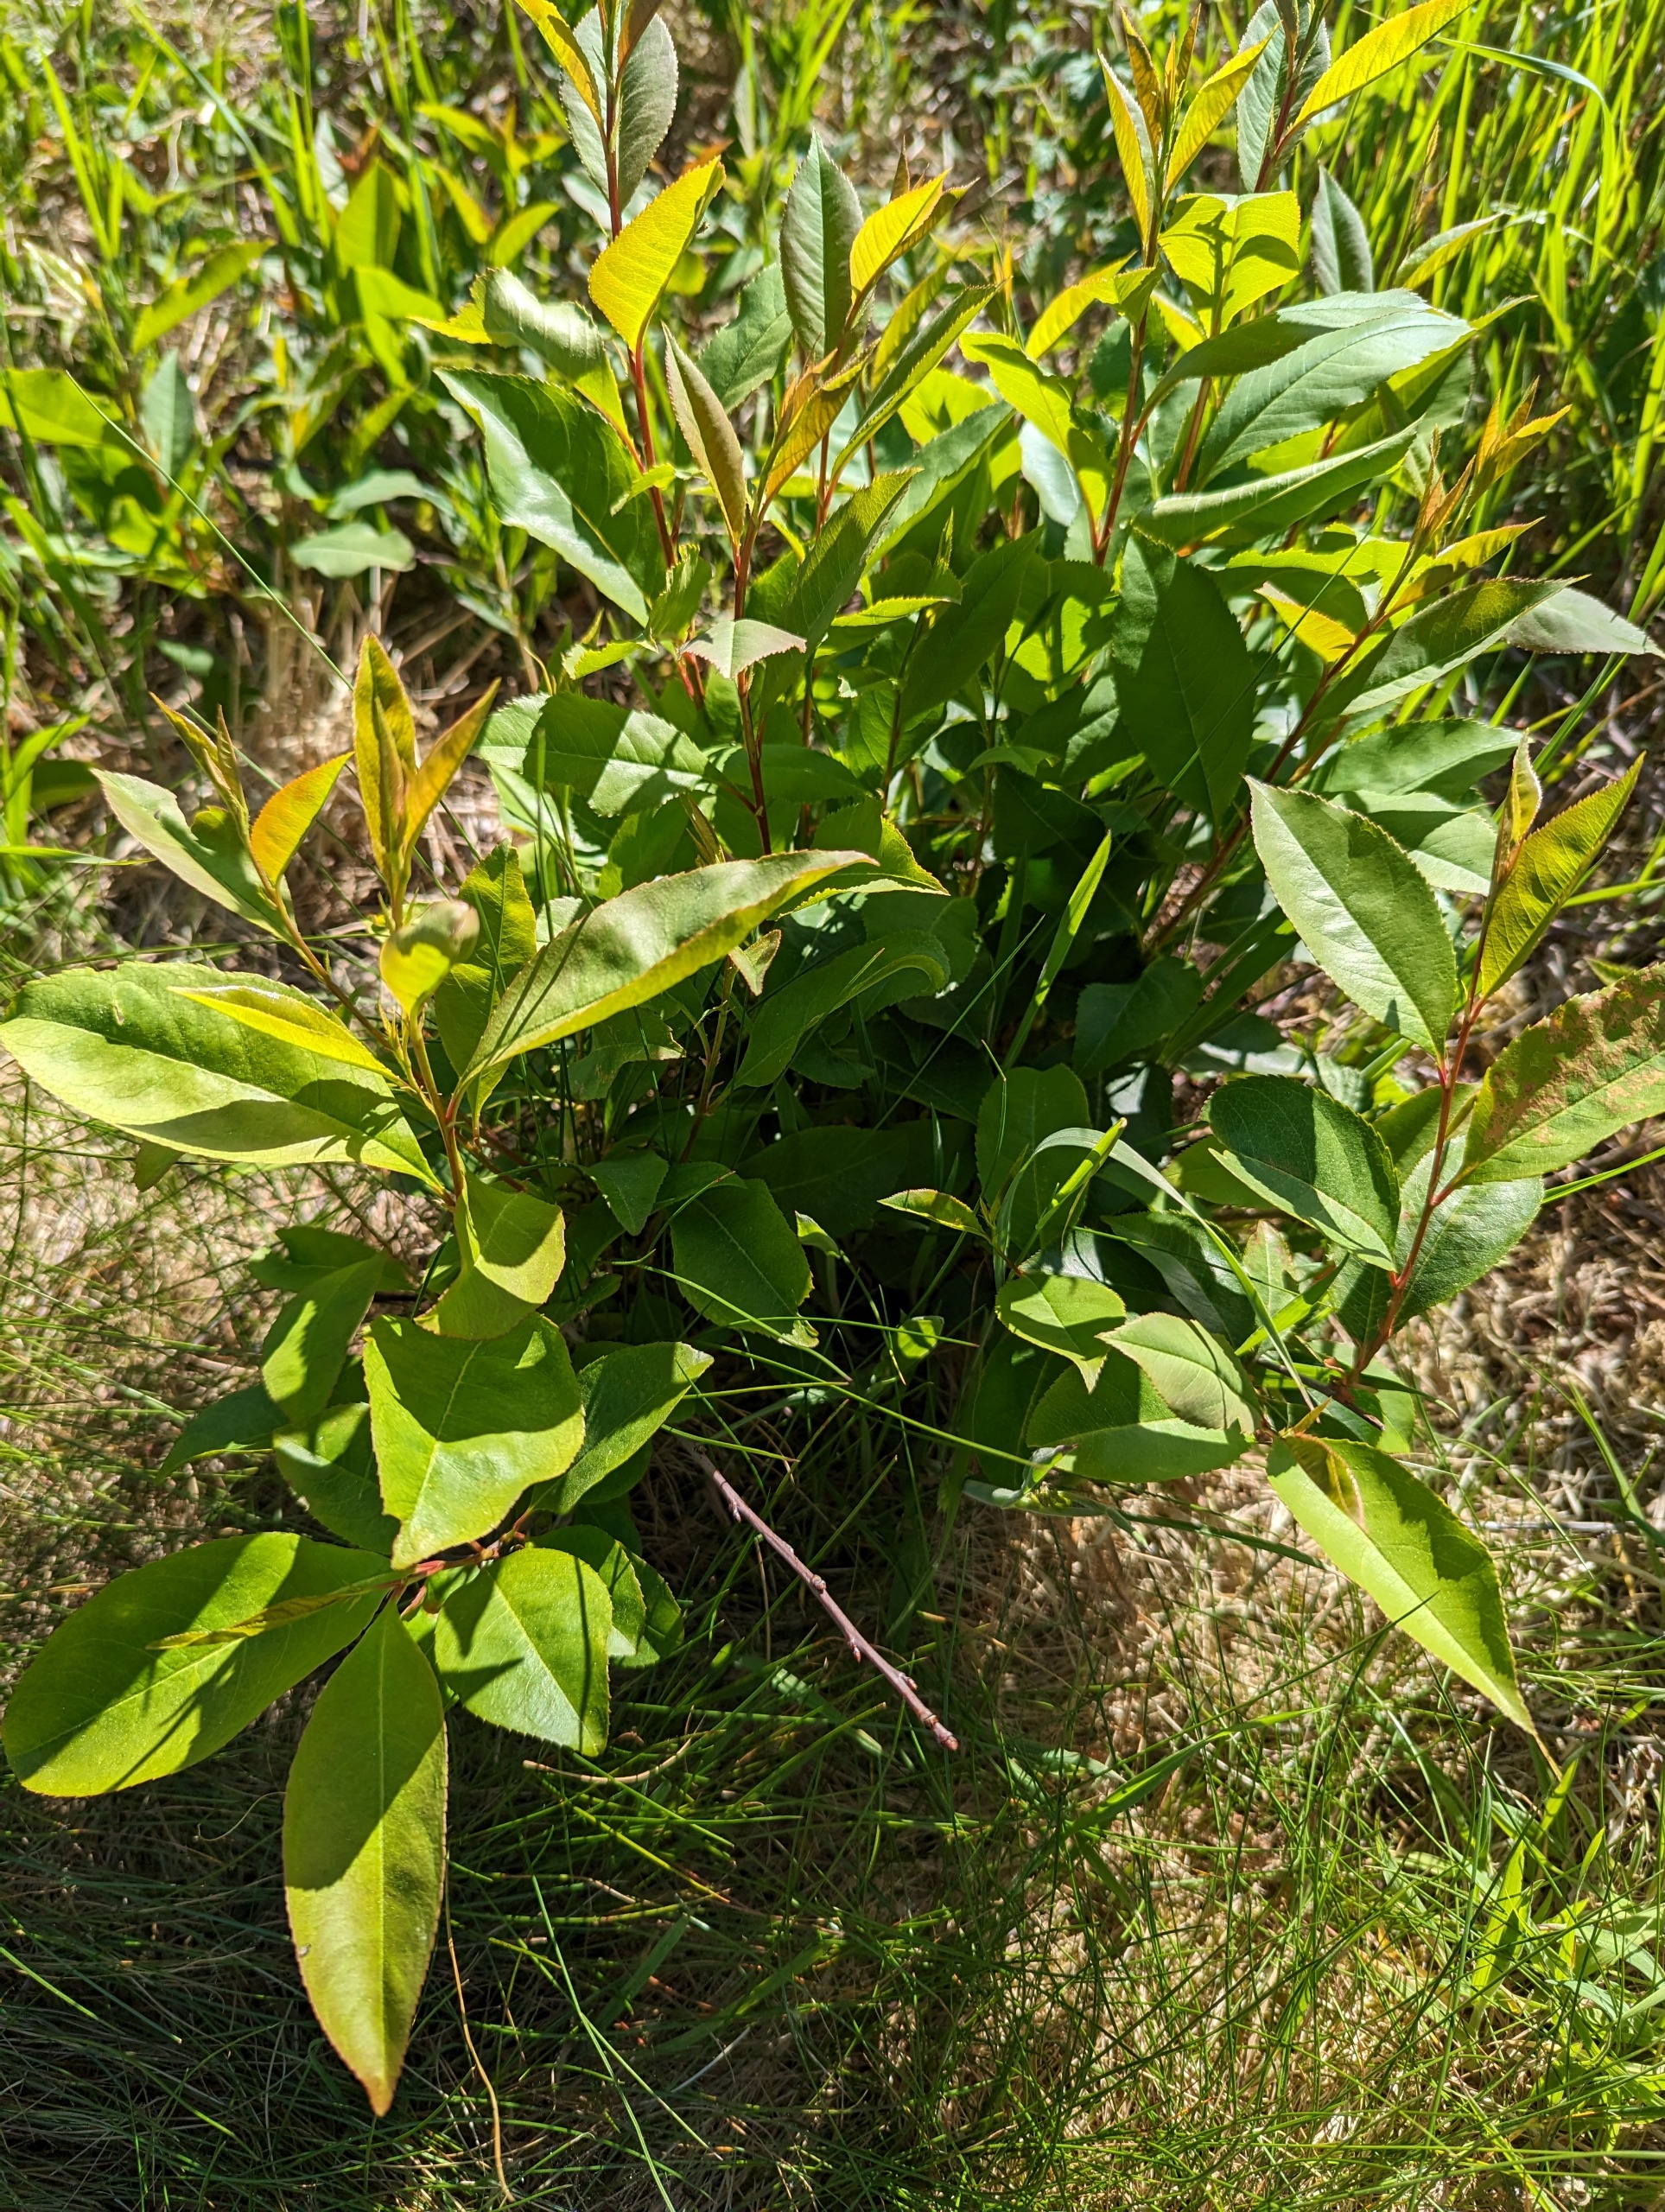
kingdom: Plantae
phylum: Tracheophyta
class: Magnoliopsida
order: Rosales
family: Rosaceae
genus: Prunus
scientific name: Prunus serotina
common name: Glansbladet hæg
